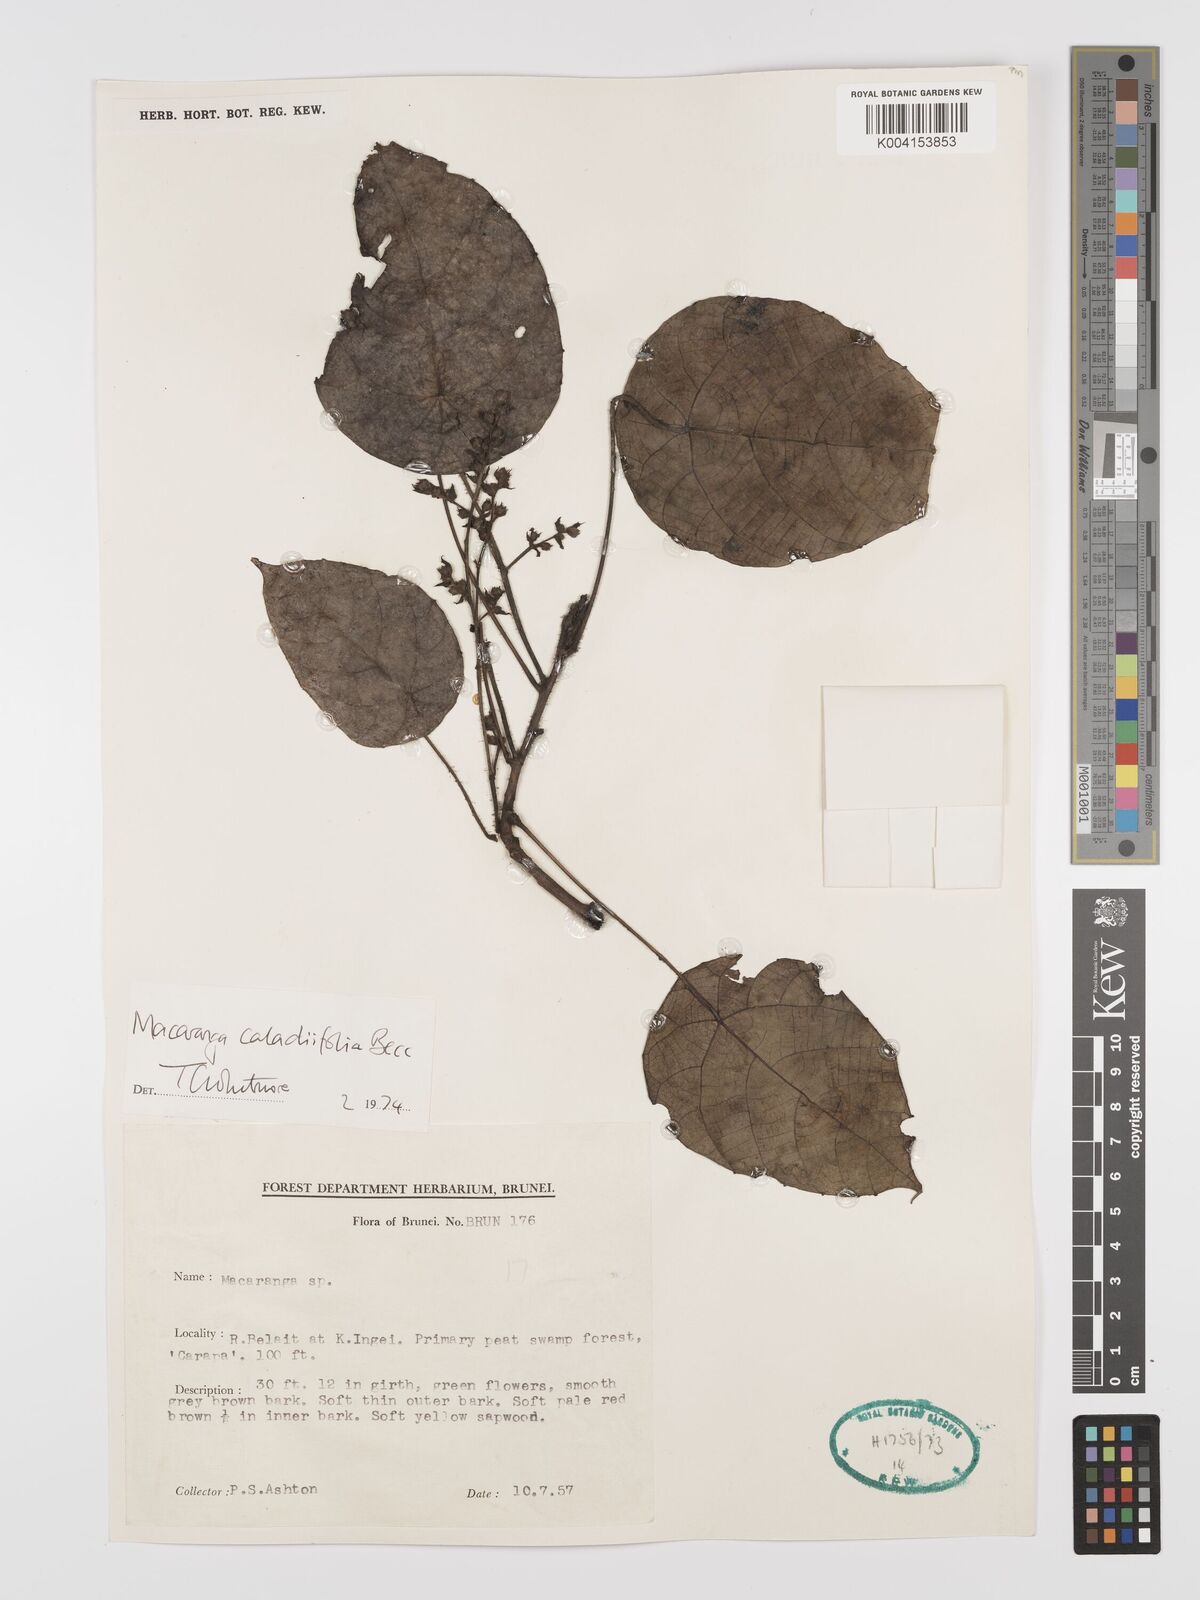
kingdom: Plantae
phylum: Tracheophyta
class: Magnoliopsida
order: Malpighiales
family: Euphorbiaceae
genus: Macaranga
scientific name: Macaranga caladiifolia
